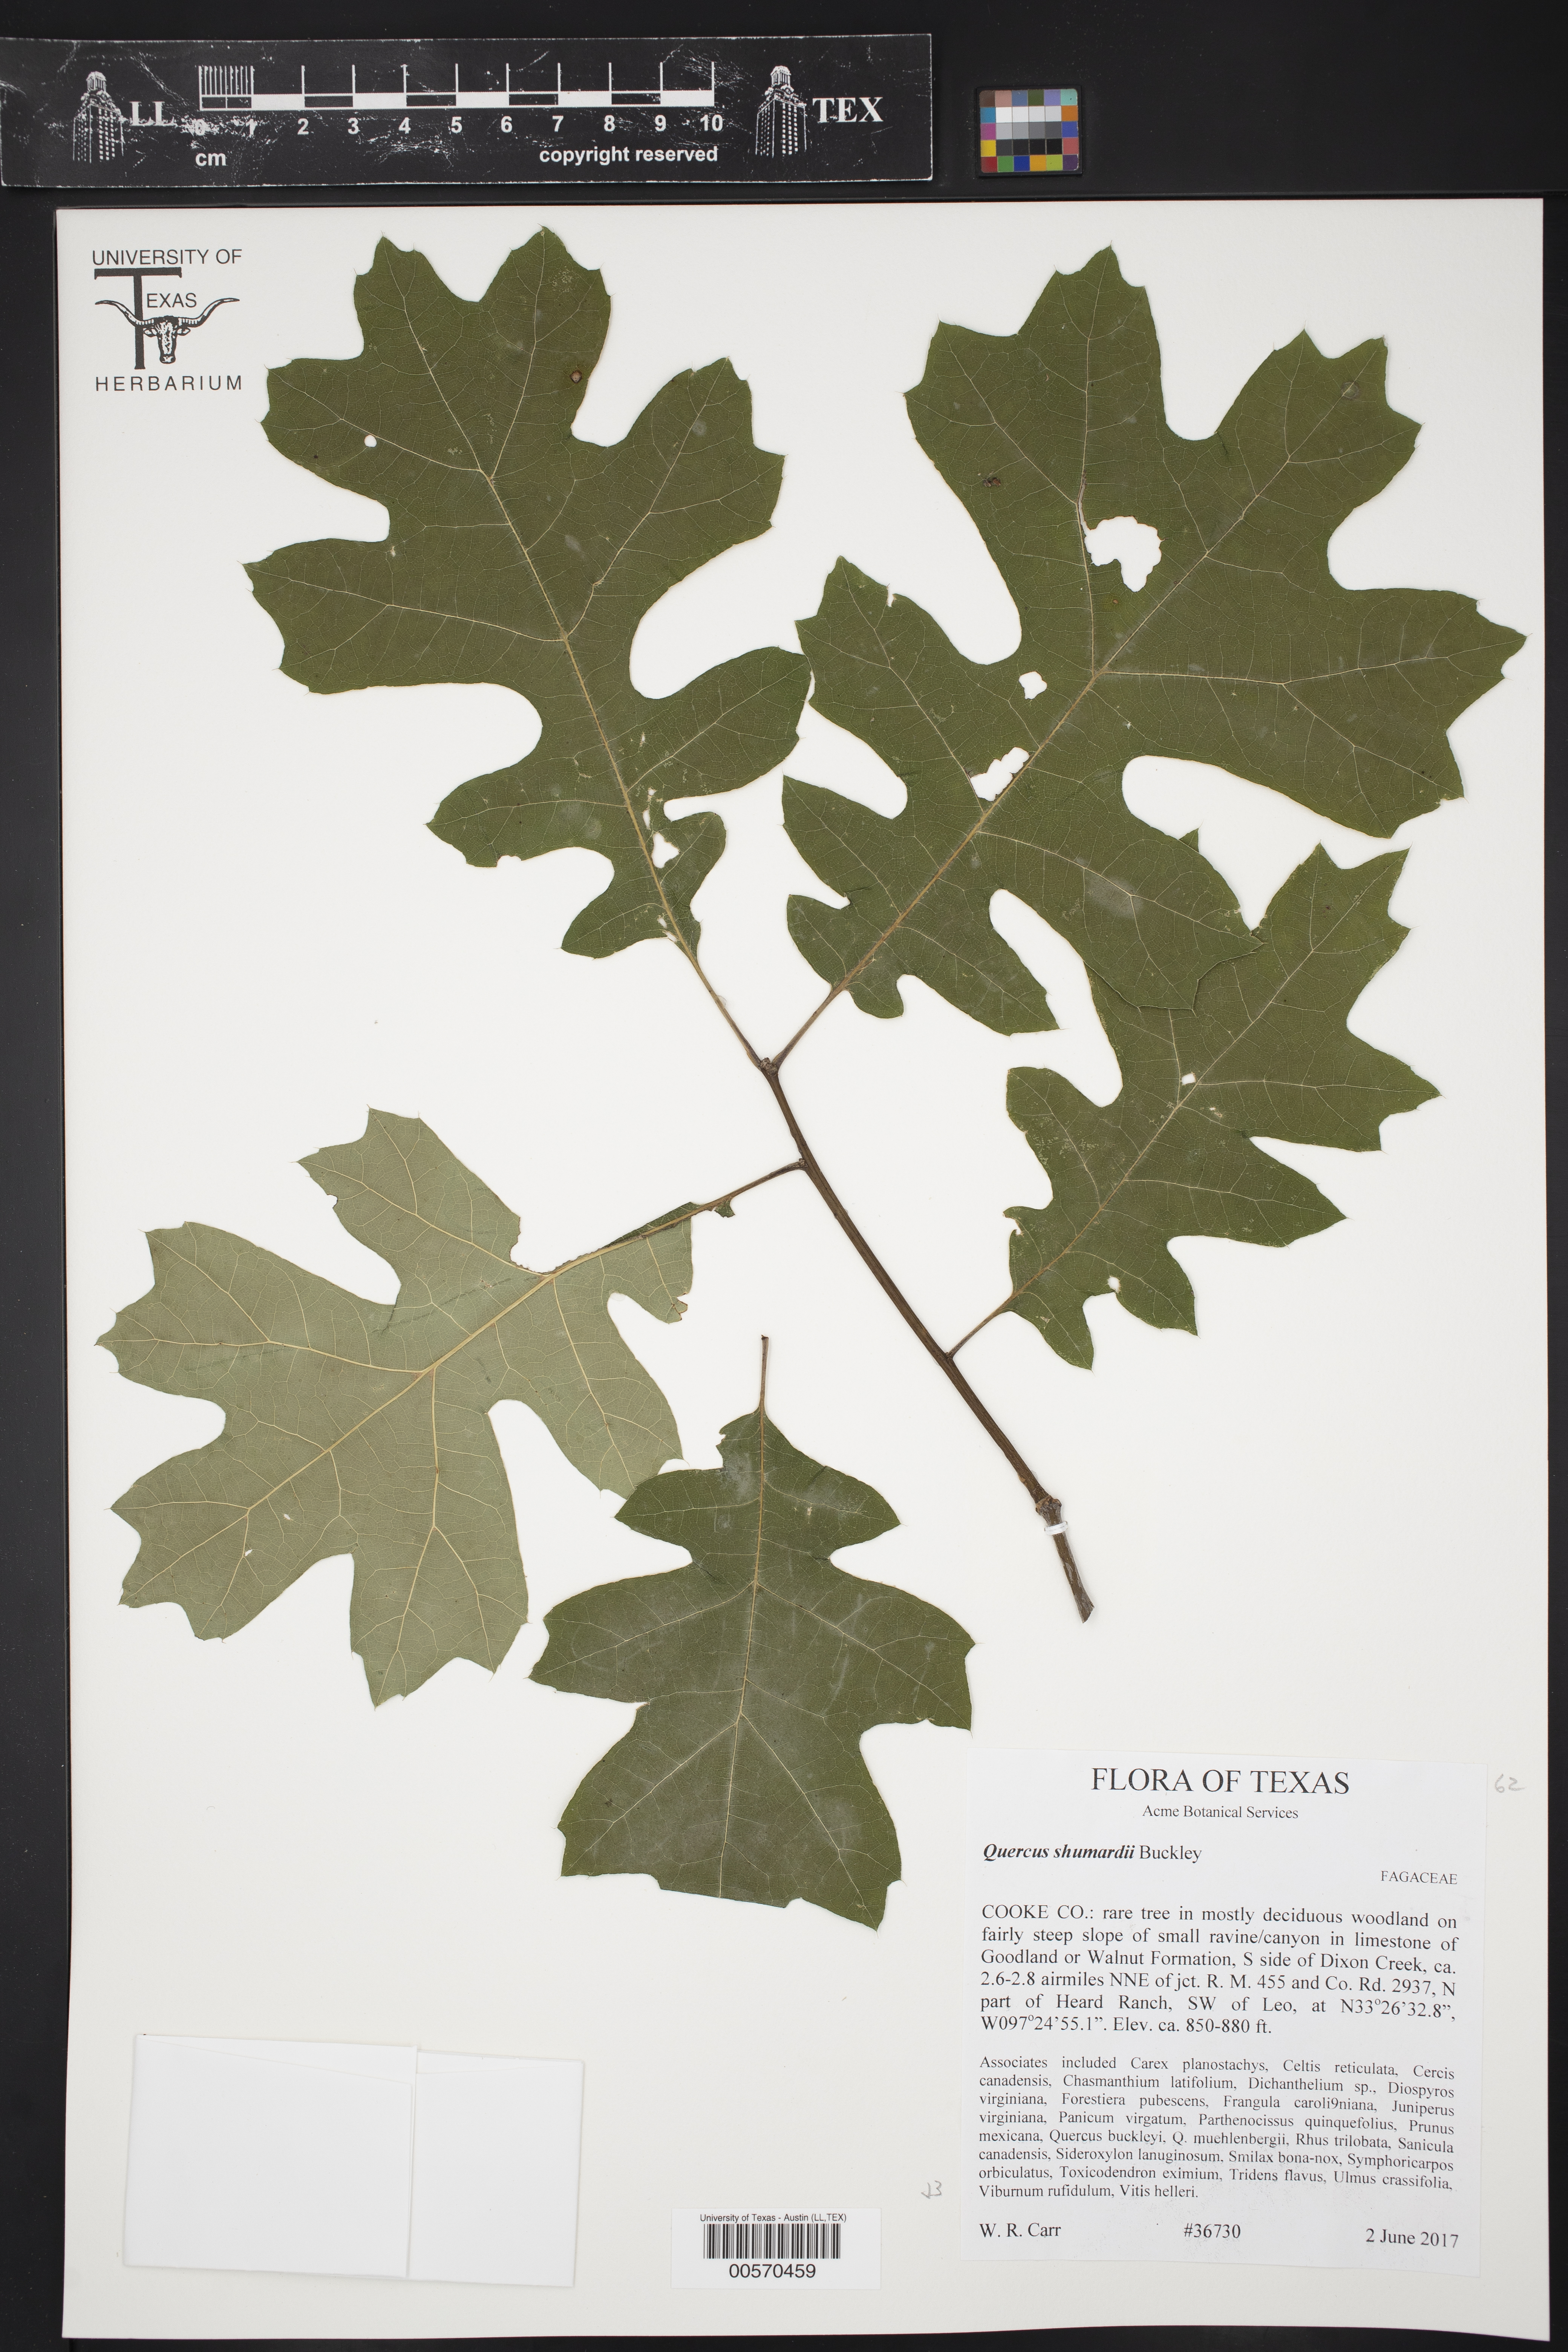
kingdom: Plantae
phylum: Tracheophyta
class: Magnoliopsida
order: Fagales
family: Fagaceae
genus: Quercus
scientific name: Quercus shumardii
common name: Shumard oak
